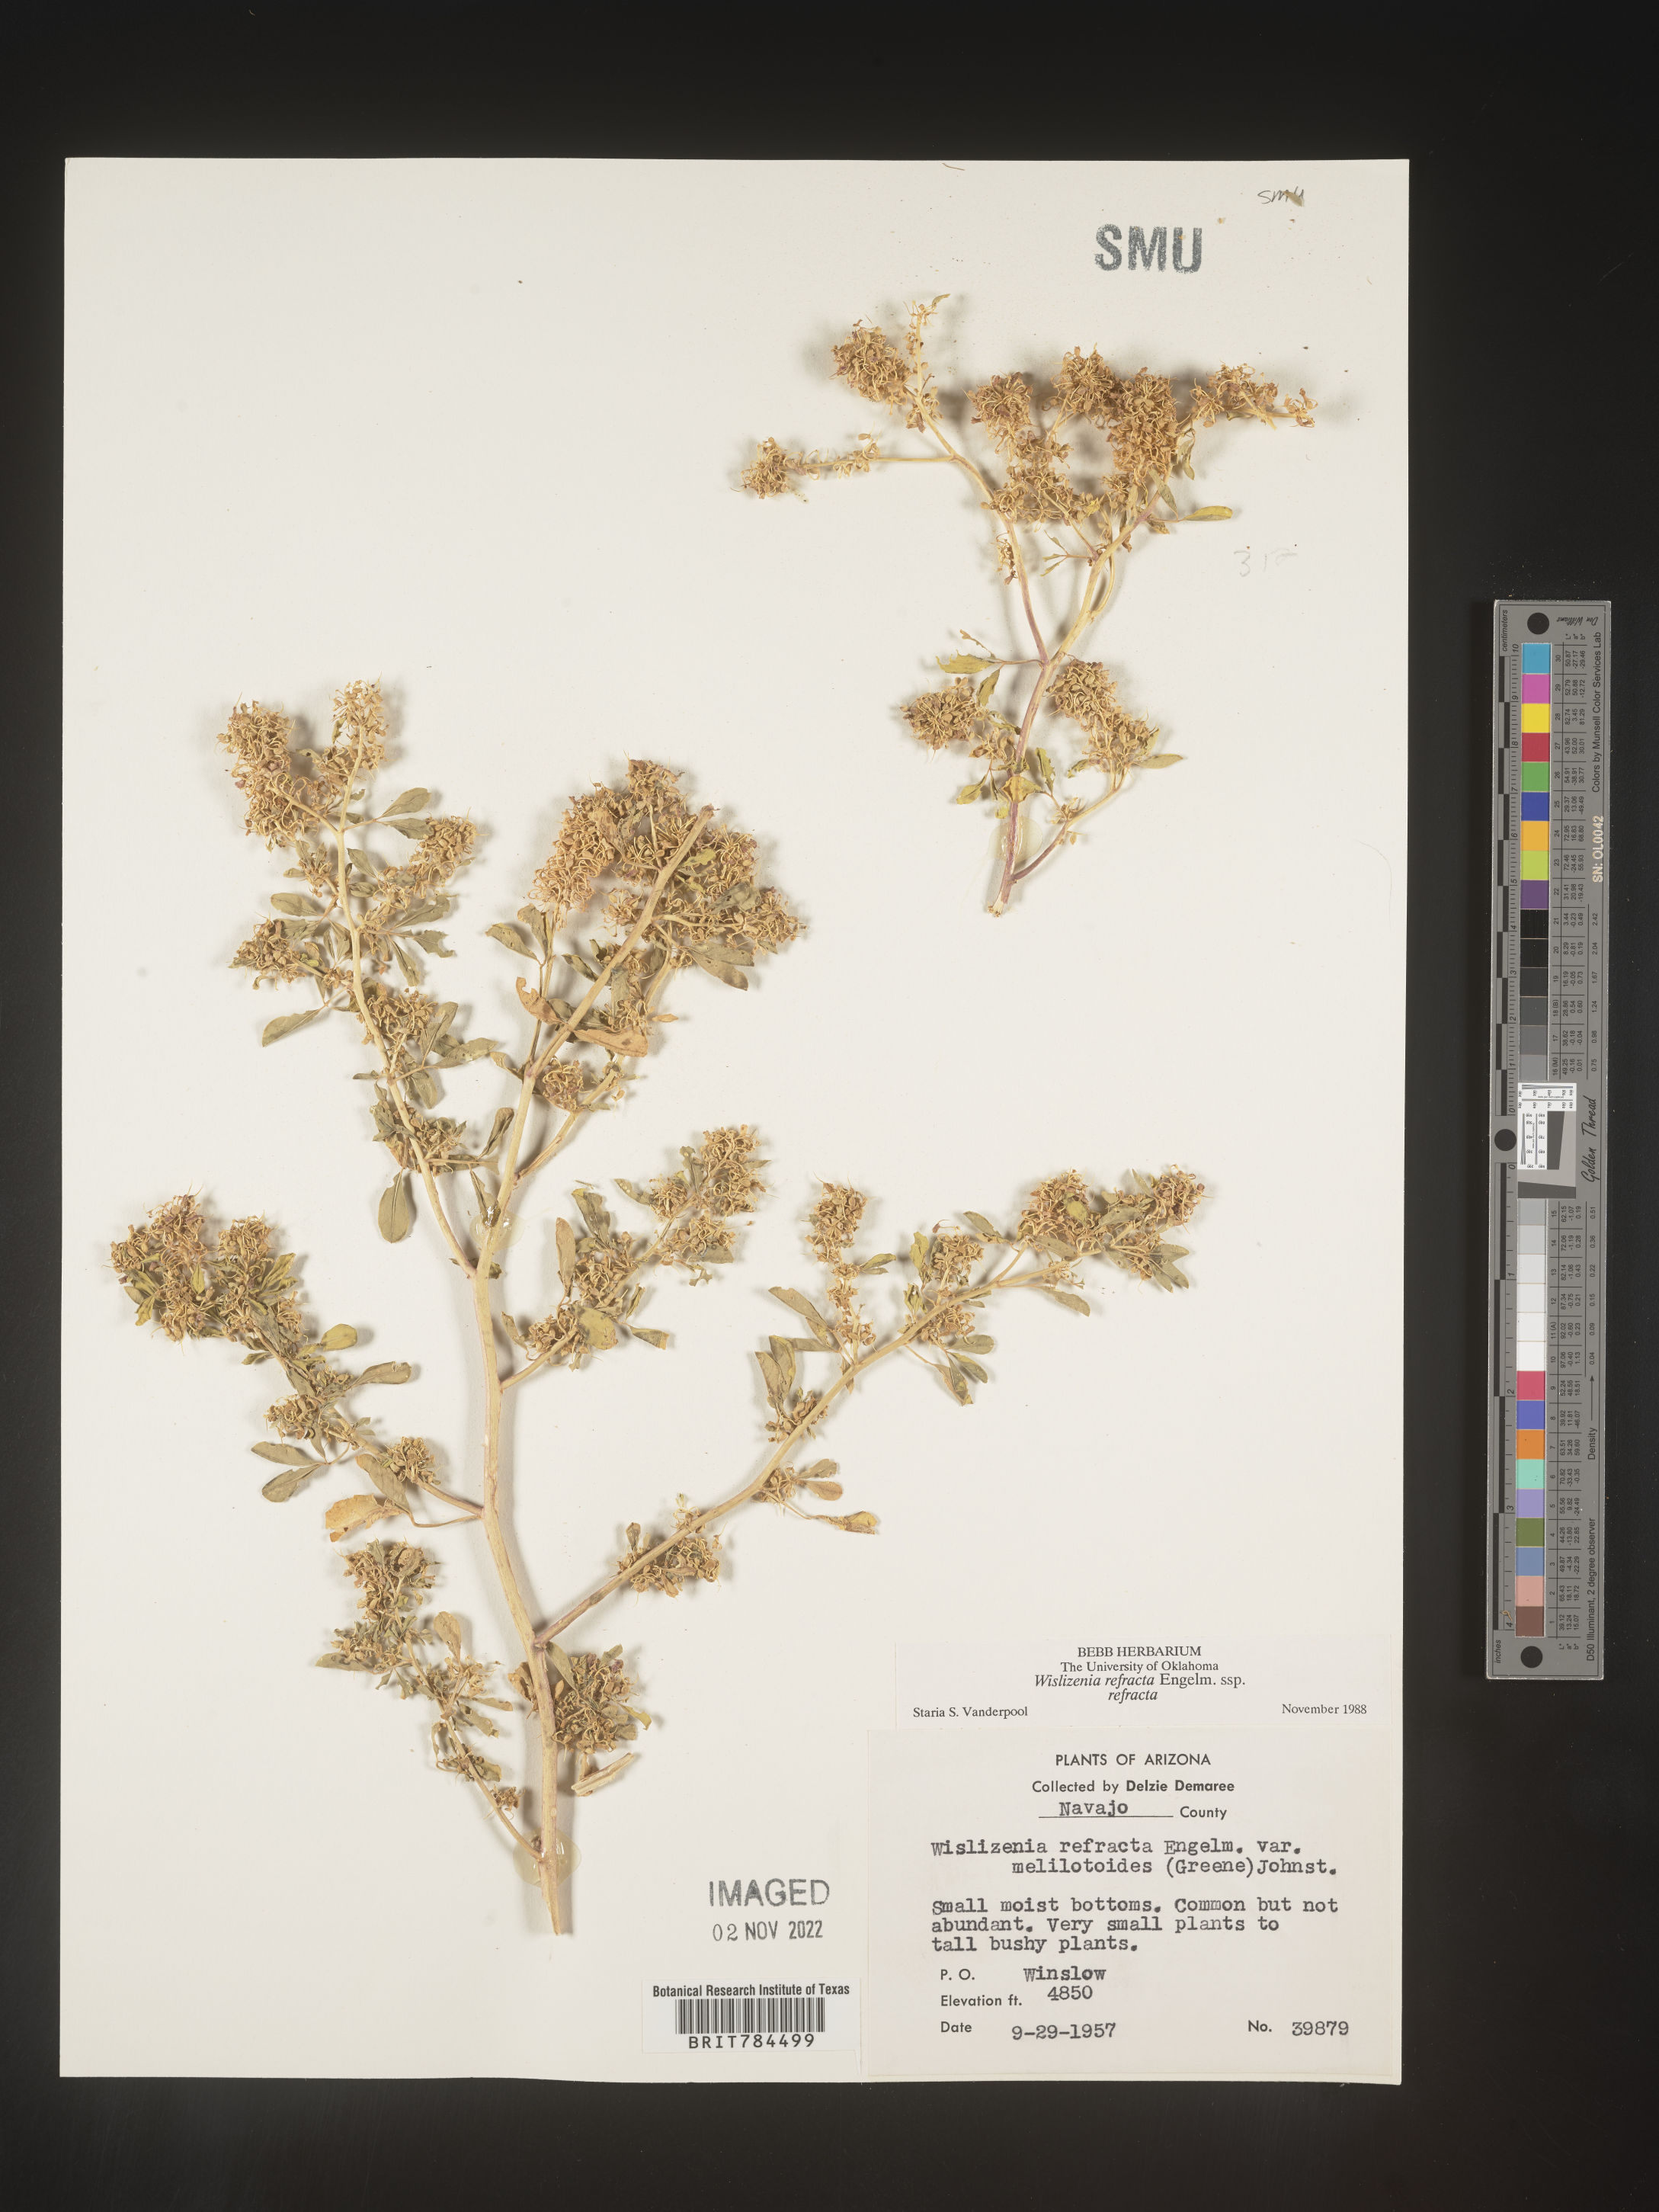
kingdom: Plantae
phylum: Tracheophyta
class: Magnoliopsida
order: Brassicales
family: Cleomaceae
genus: Cleomella
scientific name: Cleomella refracta
